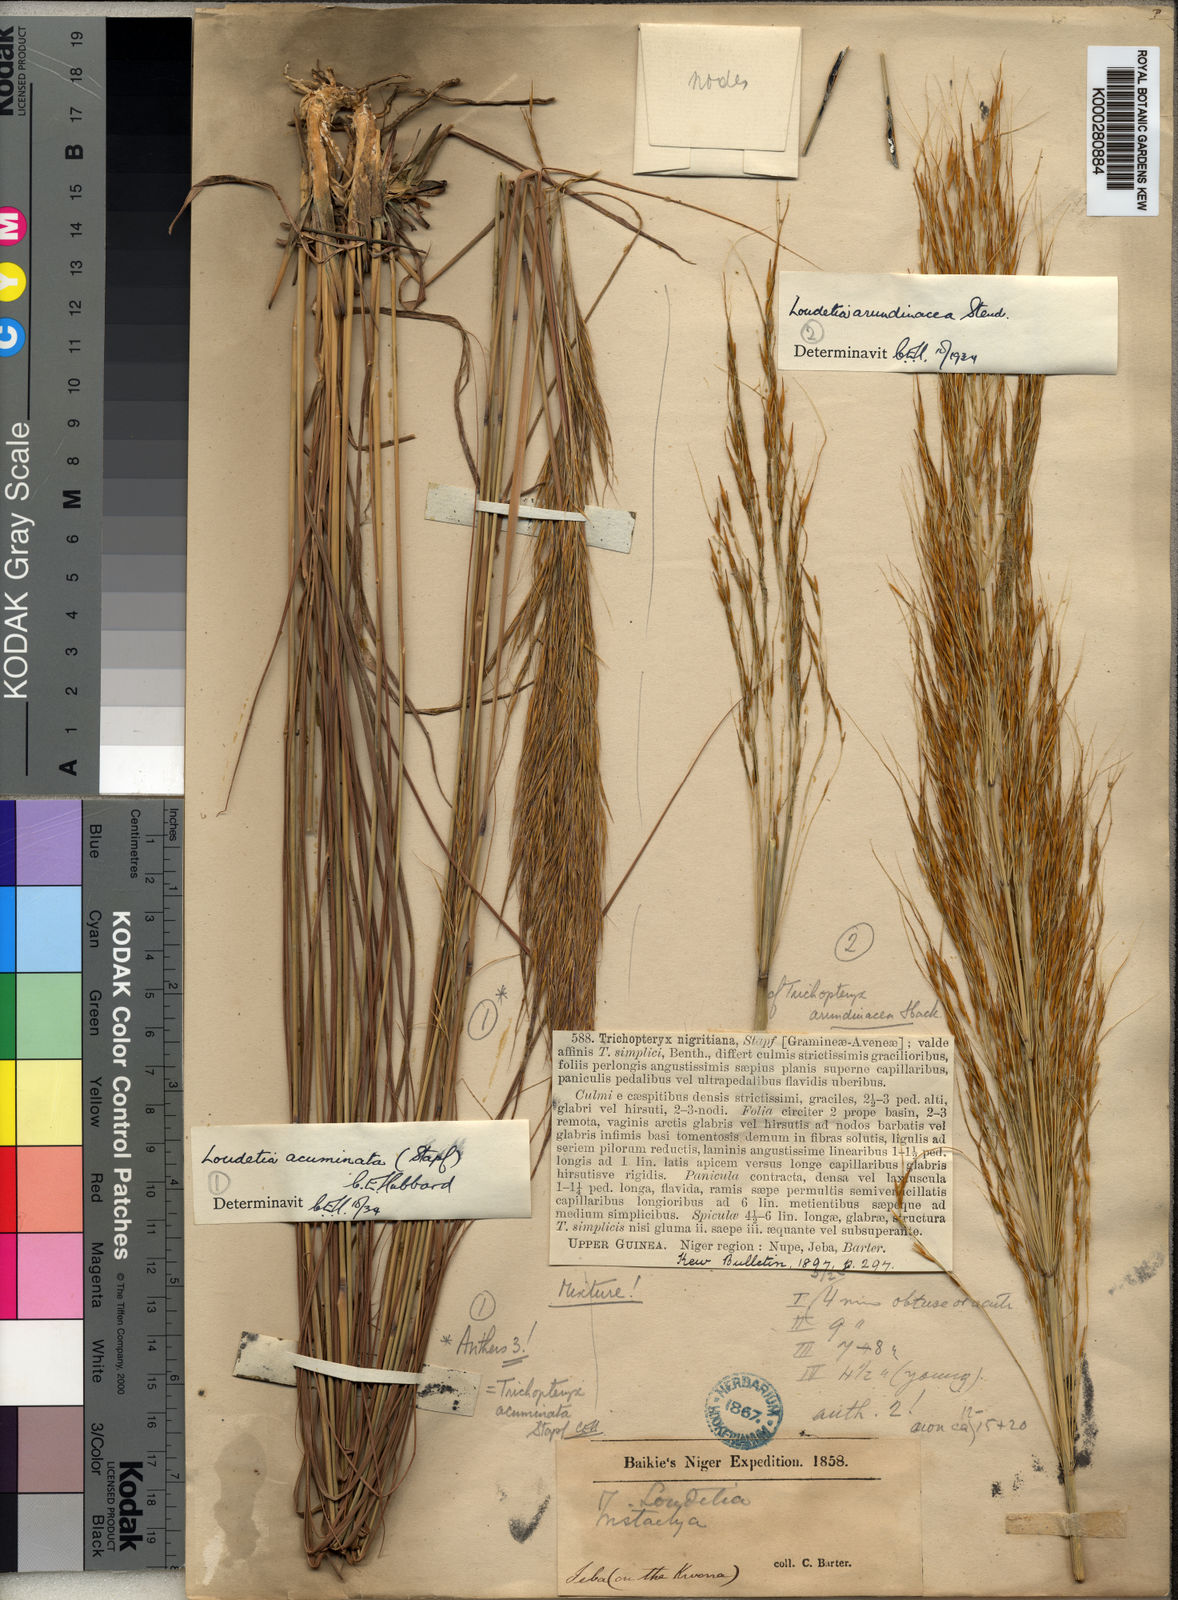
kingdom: Plantae
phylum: Tracheophyta
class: Liliopsida
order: Poales
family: Poaceae
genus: Loudetia
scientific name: Loudetia simplex
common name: Common russet grass
